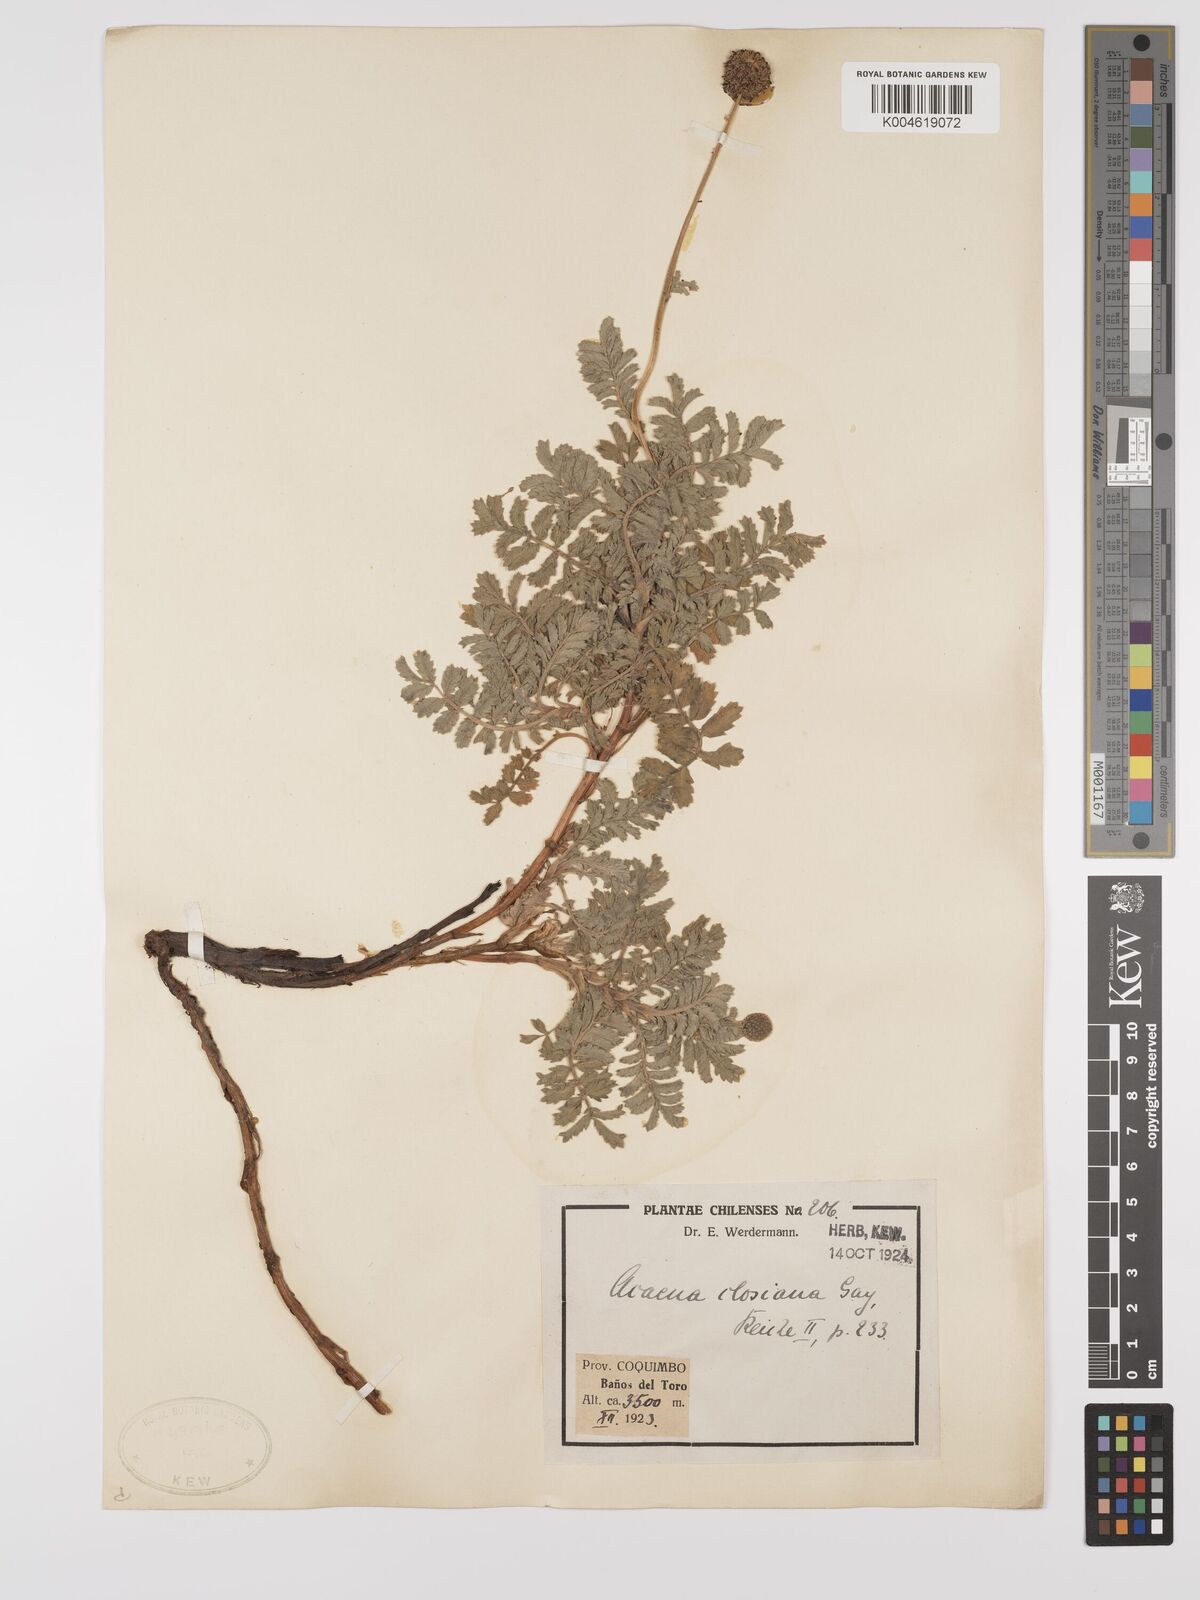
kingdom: Plantae
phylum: Tracheophyta
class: Magnoliopsida
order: Rosales
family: Rosaceae
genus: Acaena
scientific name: Acaena magellanica
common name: New zealand burr
